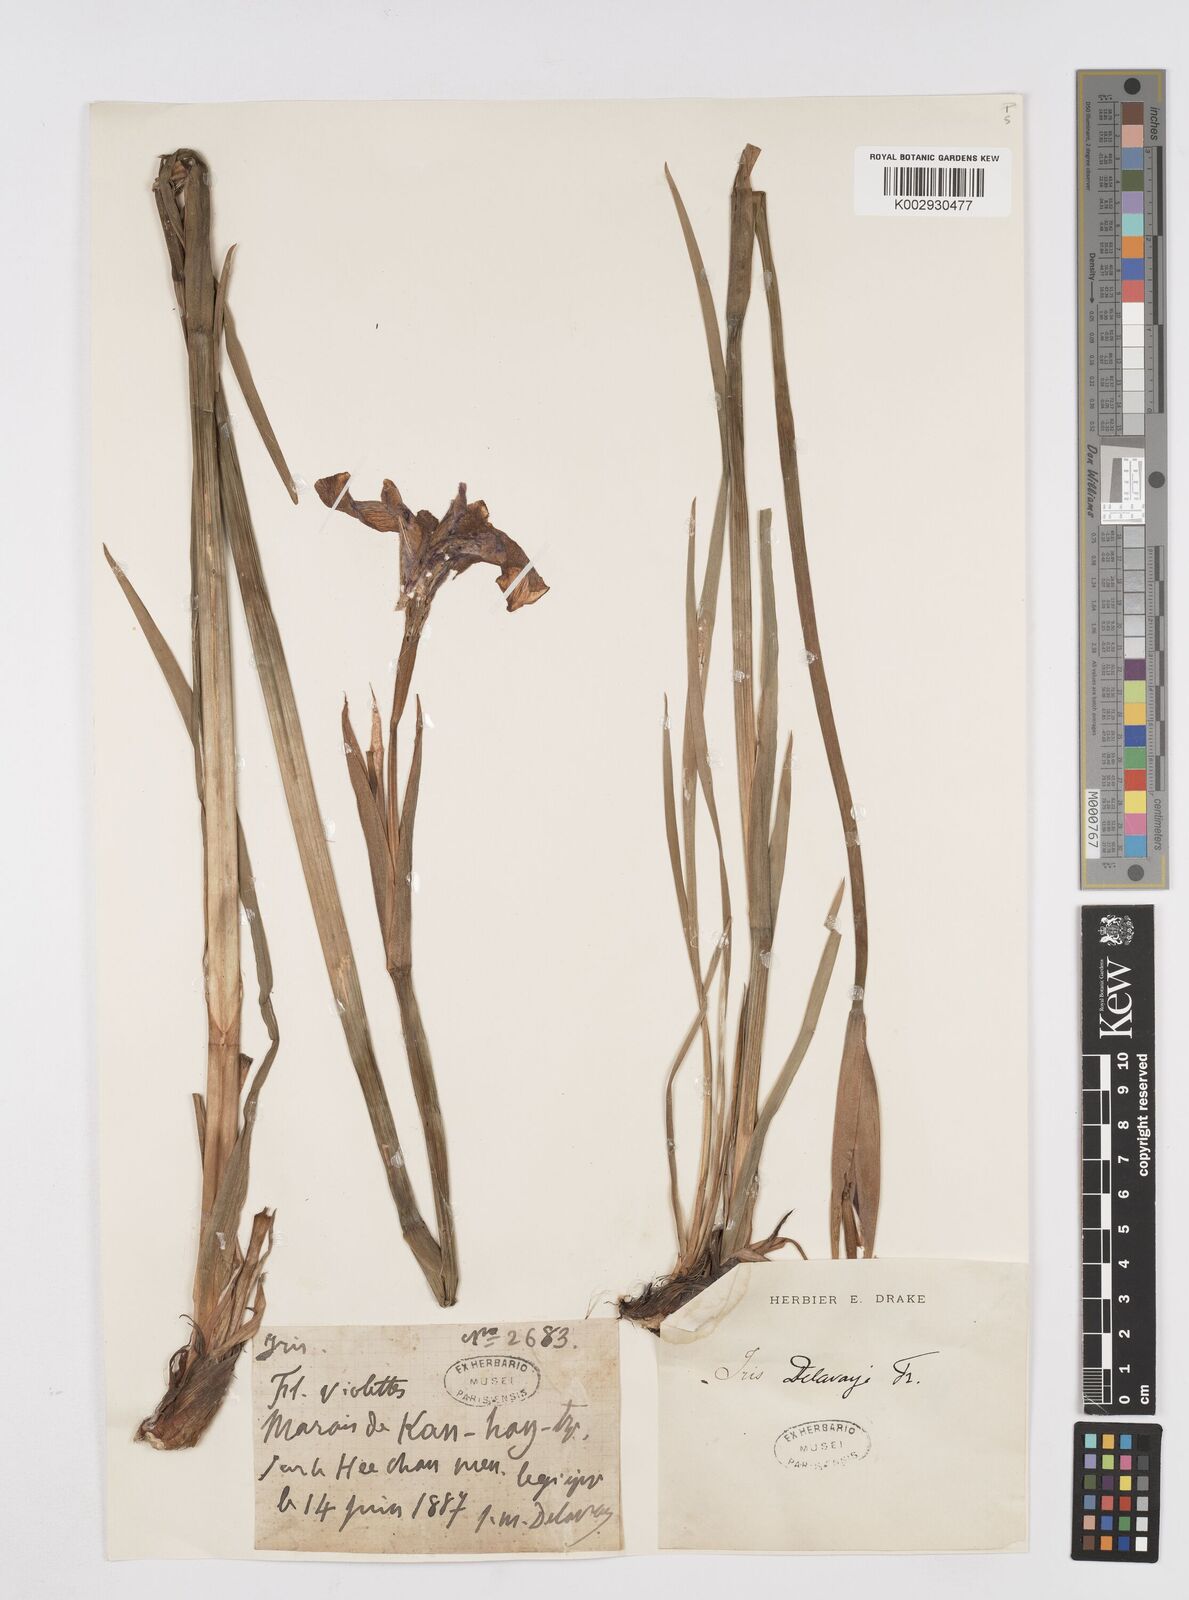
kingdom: Plantae
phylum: Tracheophyta
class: Liliopsida
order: Asparagales
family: Iridaceae
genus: Iris
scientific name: Iris delavayi
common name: Long-scape iris
